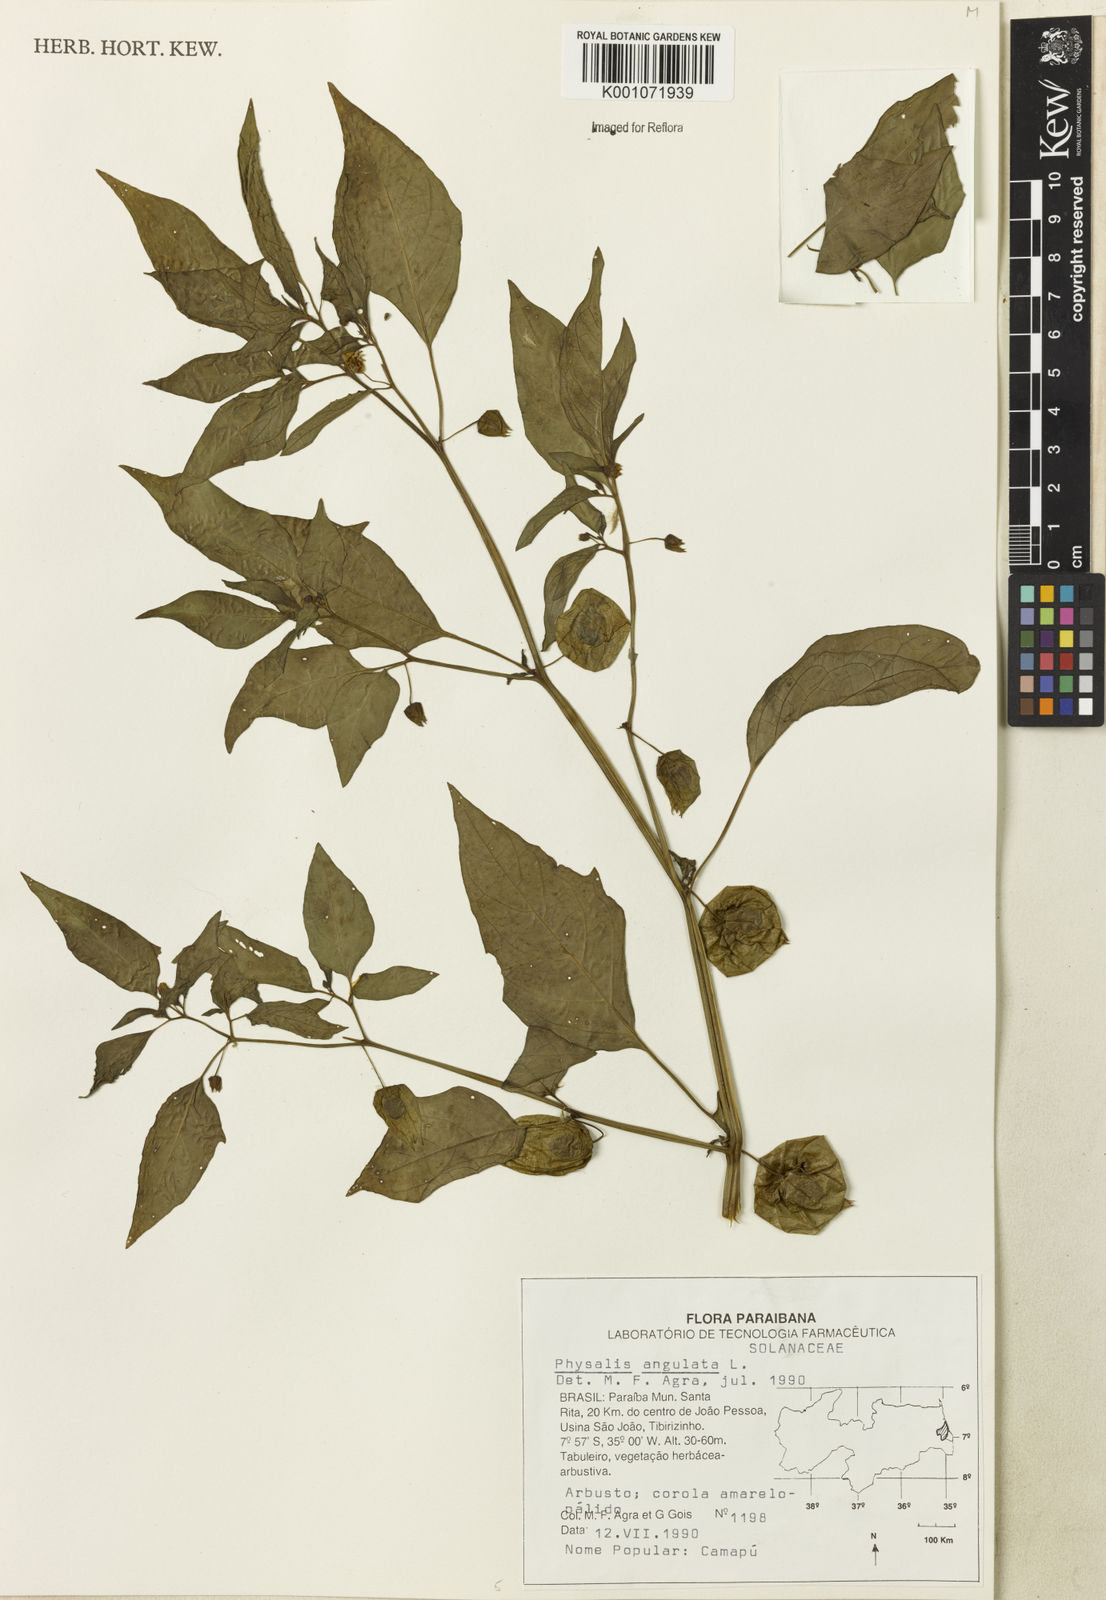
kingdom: Plantae
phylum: Tracheophyta
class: Magnoliopsida
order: Solanales
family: Solanaceae
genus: Physalis
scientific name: Physalis angulata
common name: Angular winter-cherry
